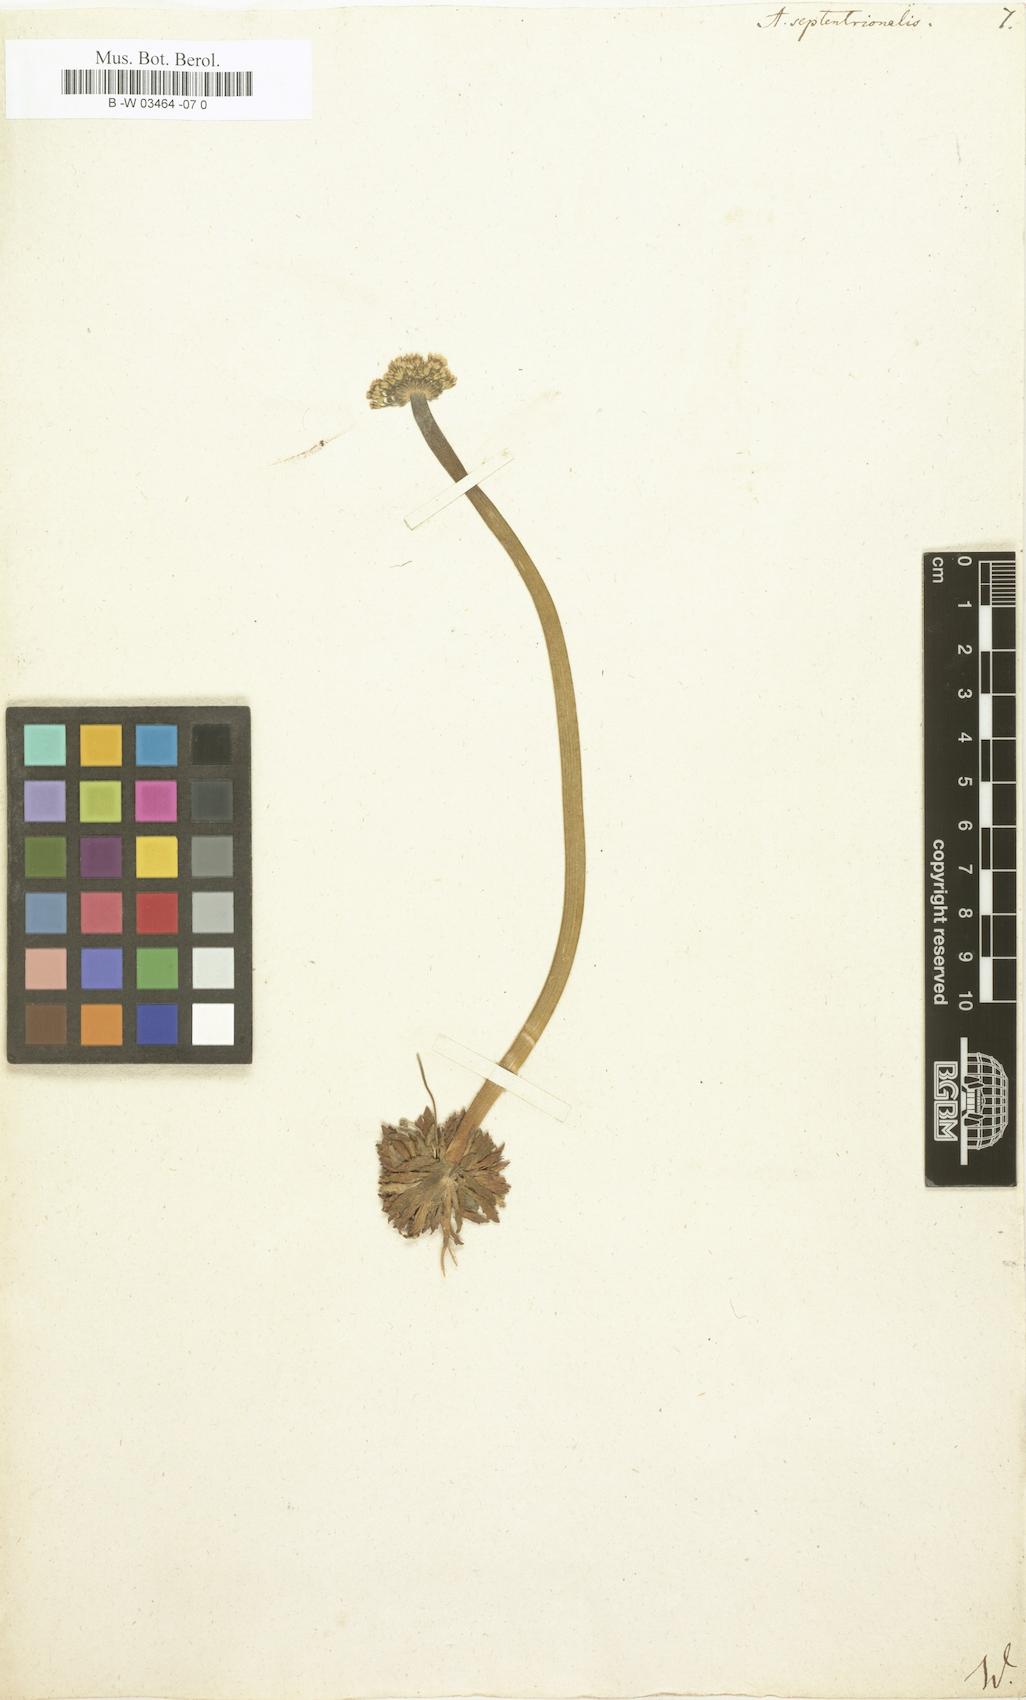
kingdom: Plantae
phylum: Tracheophyta
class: Magnoliopsida
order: Ericales
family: Primulaceae
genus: Androsace
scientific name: Androsace septentrionalis
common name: Hairy northern fairy-candelabra
